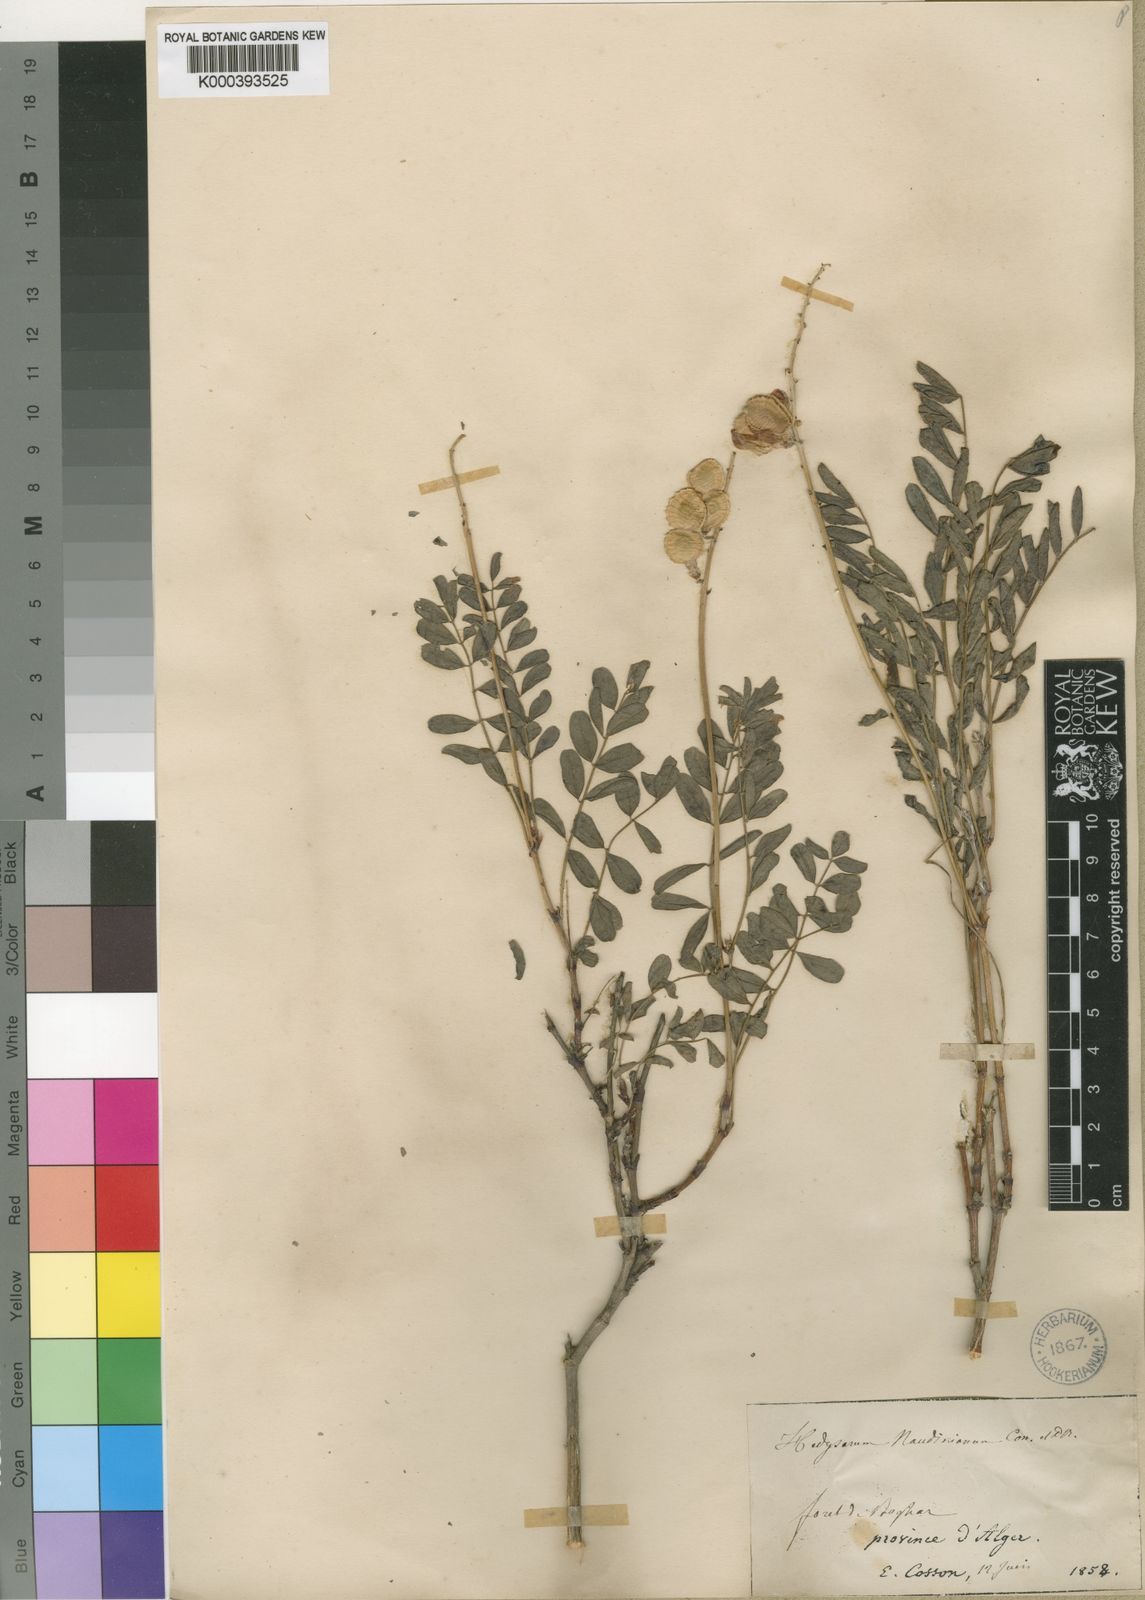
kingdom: Plantae
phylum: Tracheophyta
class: Magnoliopsida
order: Fabales
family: Fabaceae
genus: Hedysarum
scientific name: Hedysarum naudinianum
